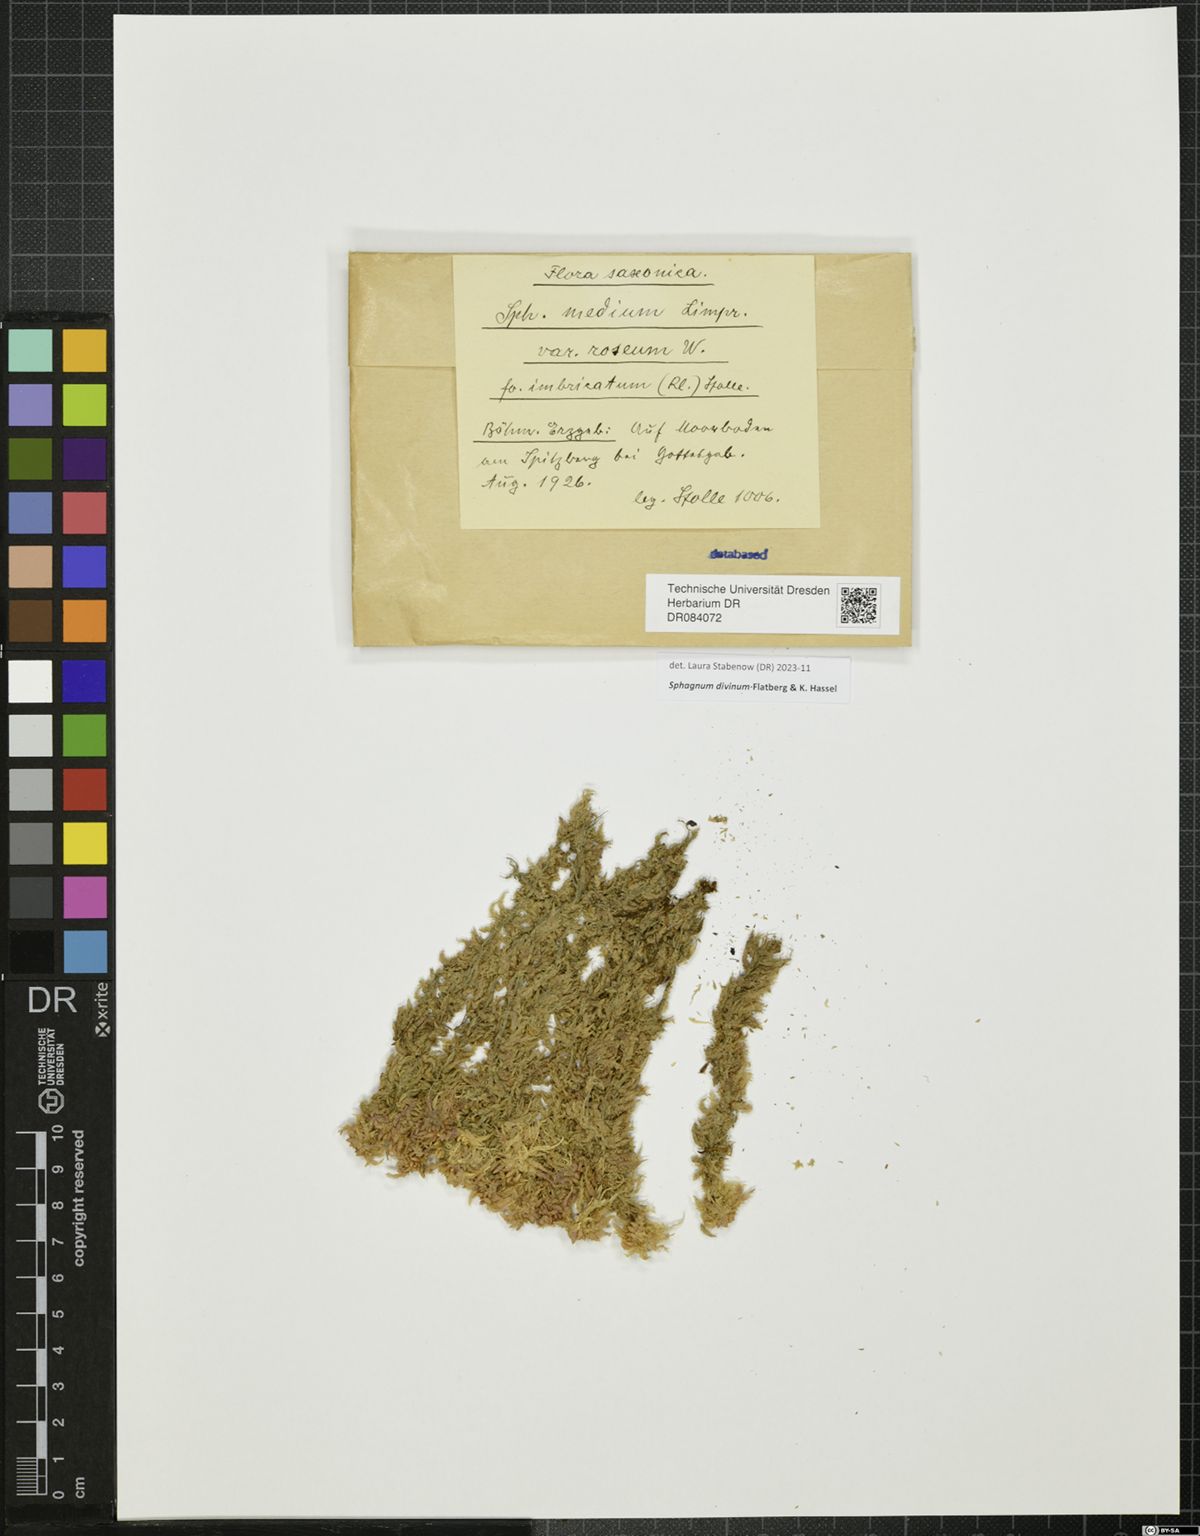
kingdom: Plantae
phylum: Bryophyta
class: Sphagnopsida
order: Sphagnales
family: Sphagnaceae
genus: Sphagnum
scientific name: Sphagnum medium
